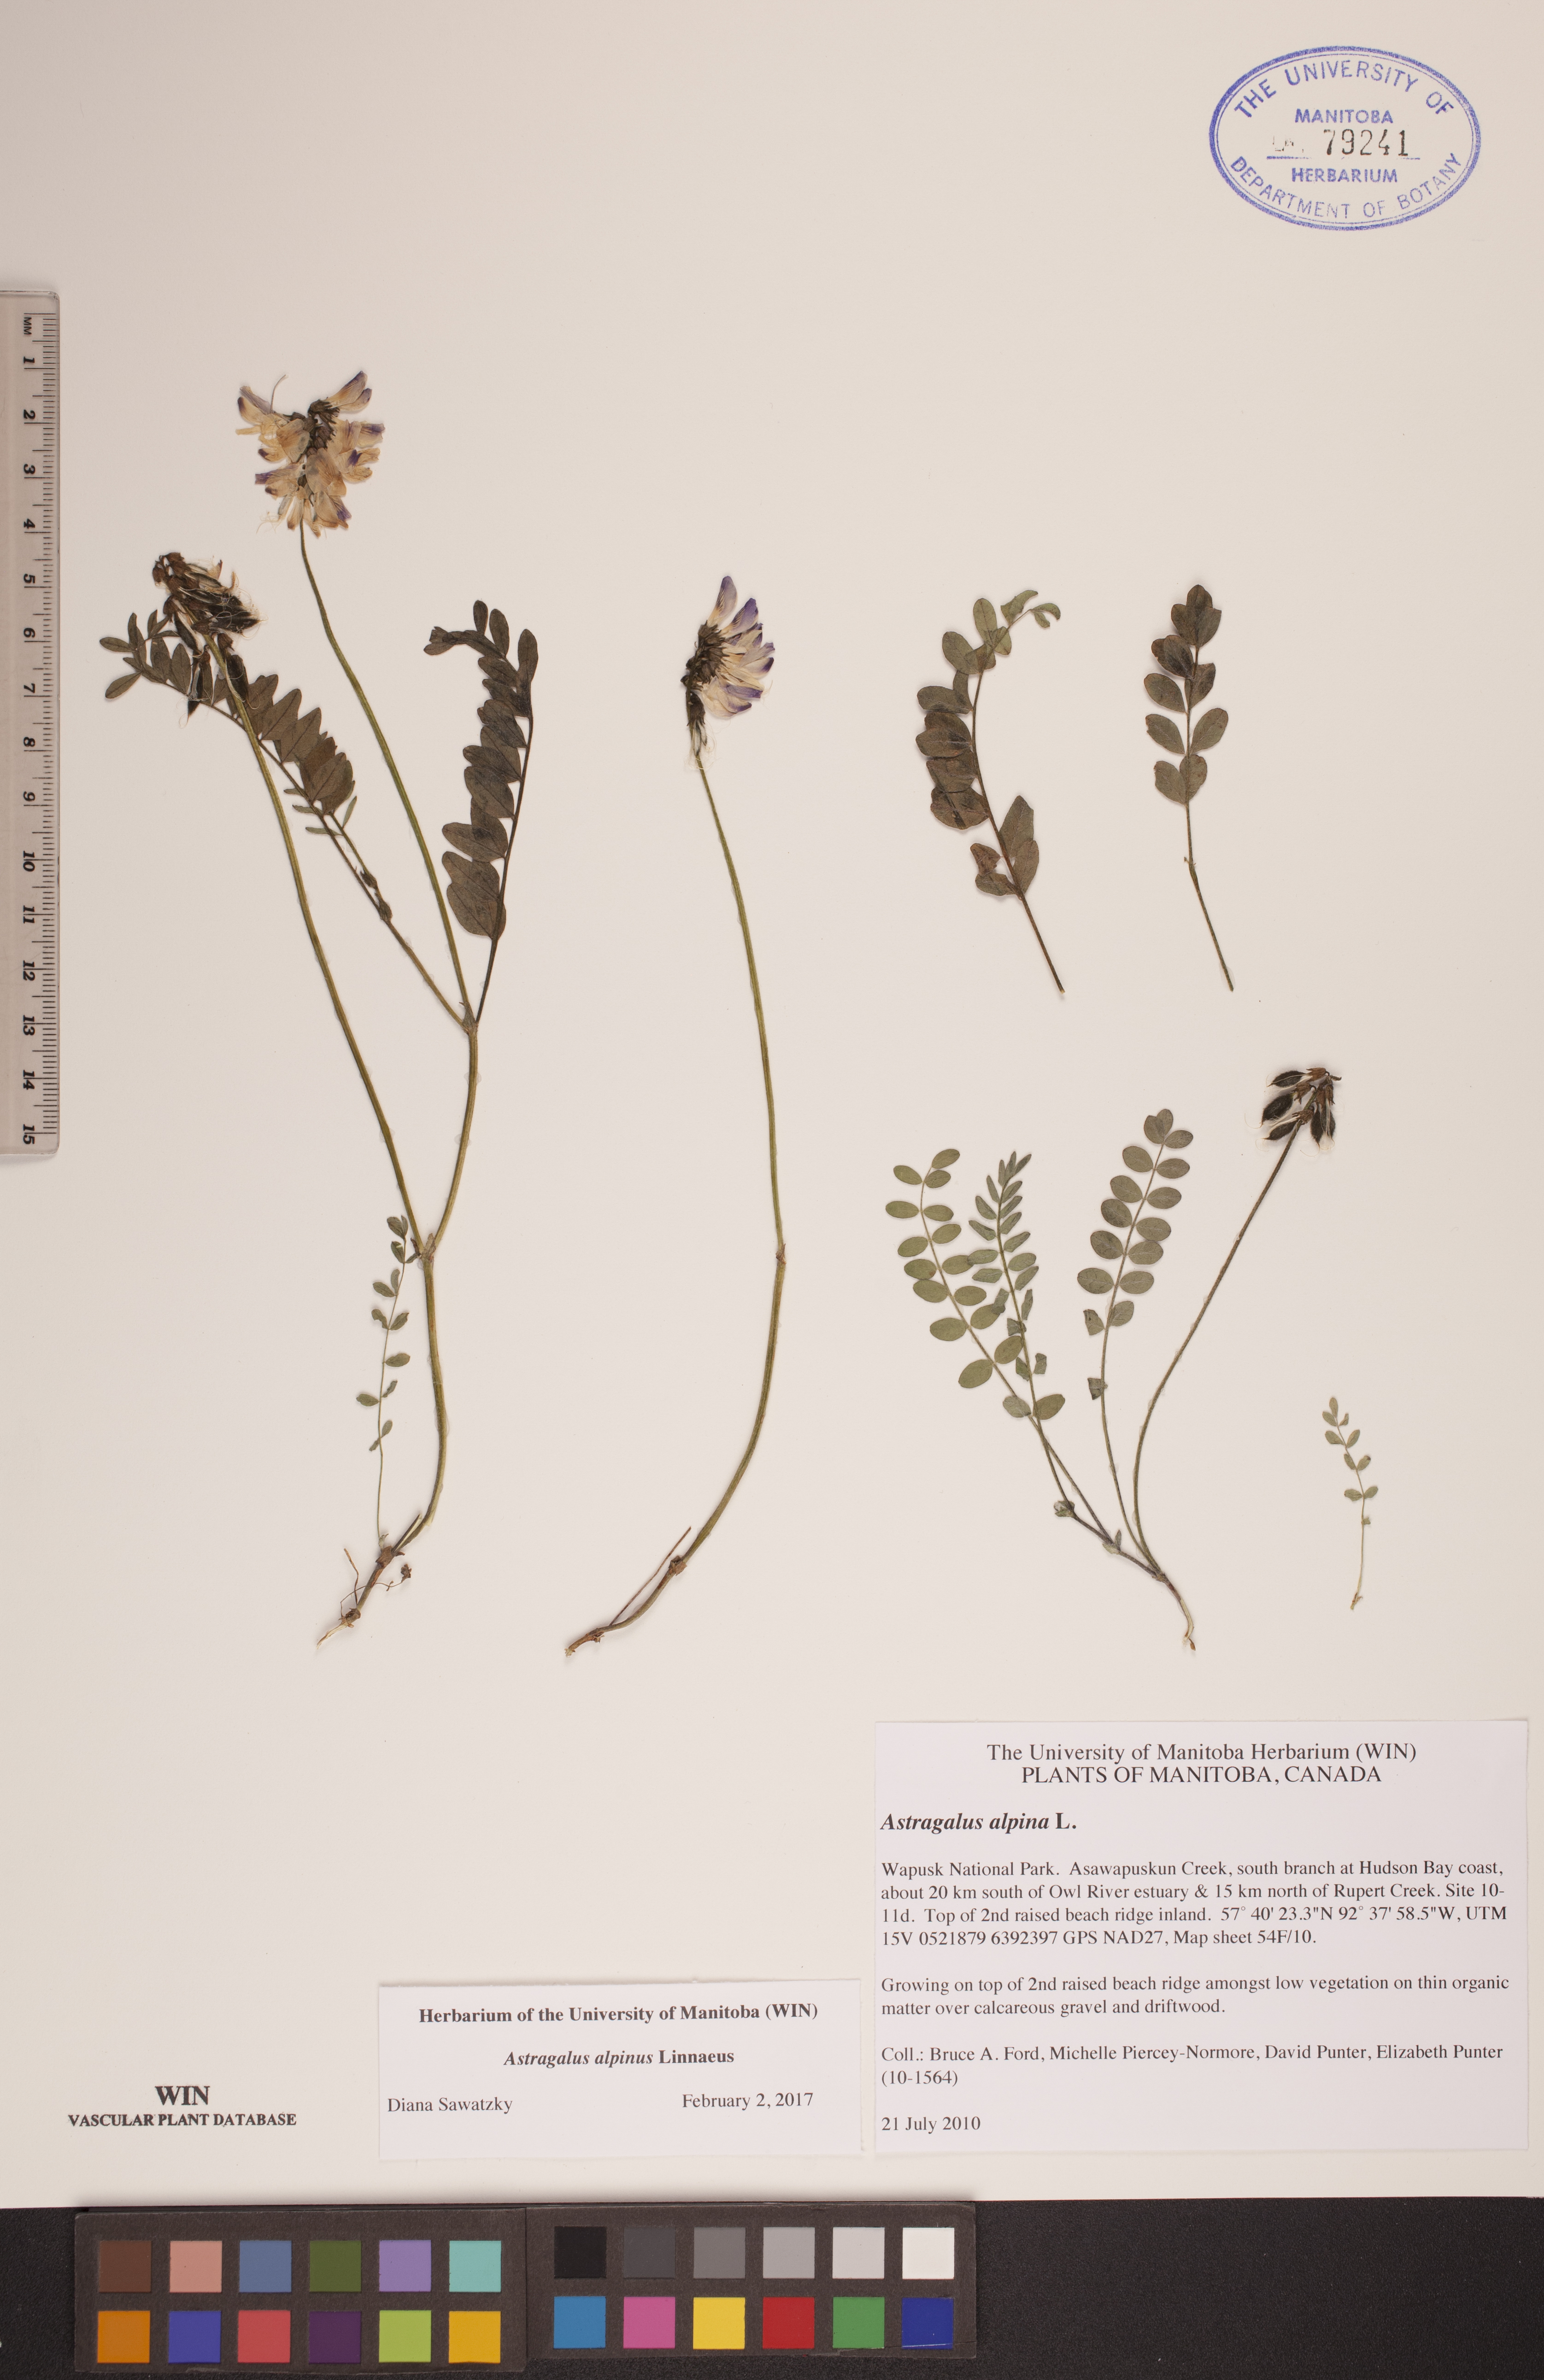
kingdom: Plantae
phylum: Tracheophyta
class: Magnoliopsida
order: Fabales
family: Fabaceae
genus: Astragalus
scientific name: Astragalus alpinus
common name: Alpine milk-vetch
